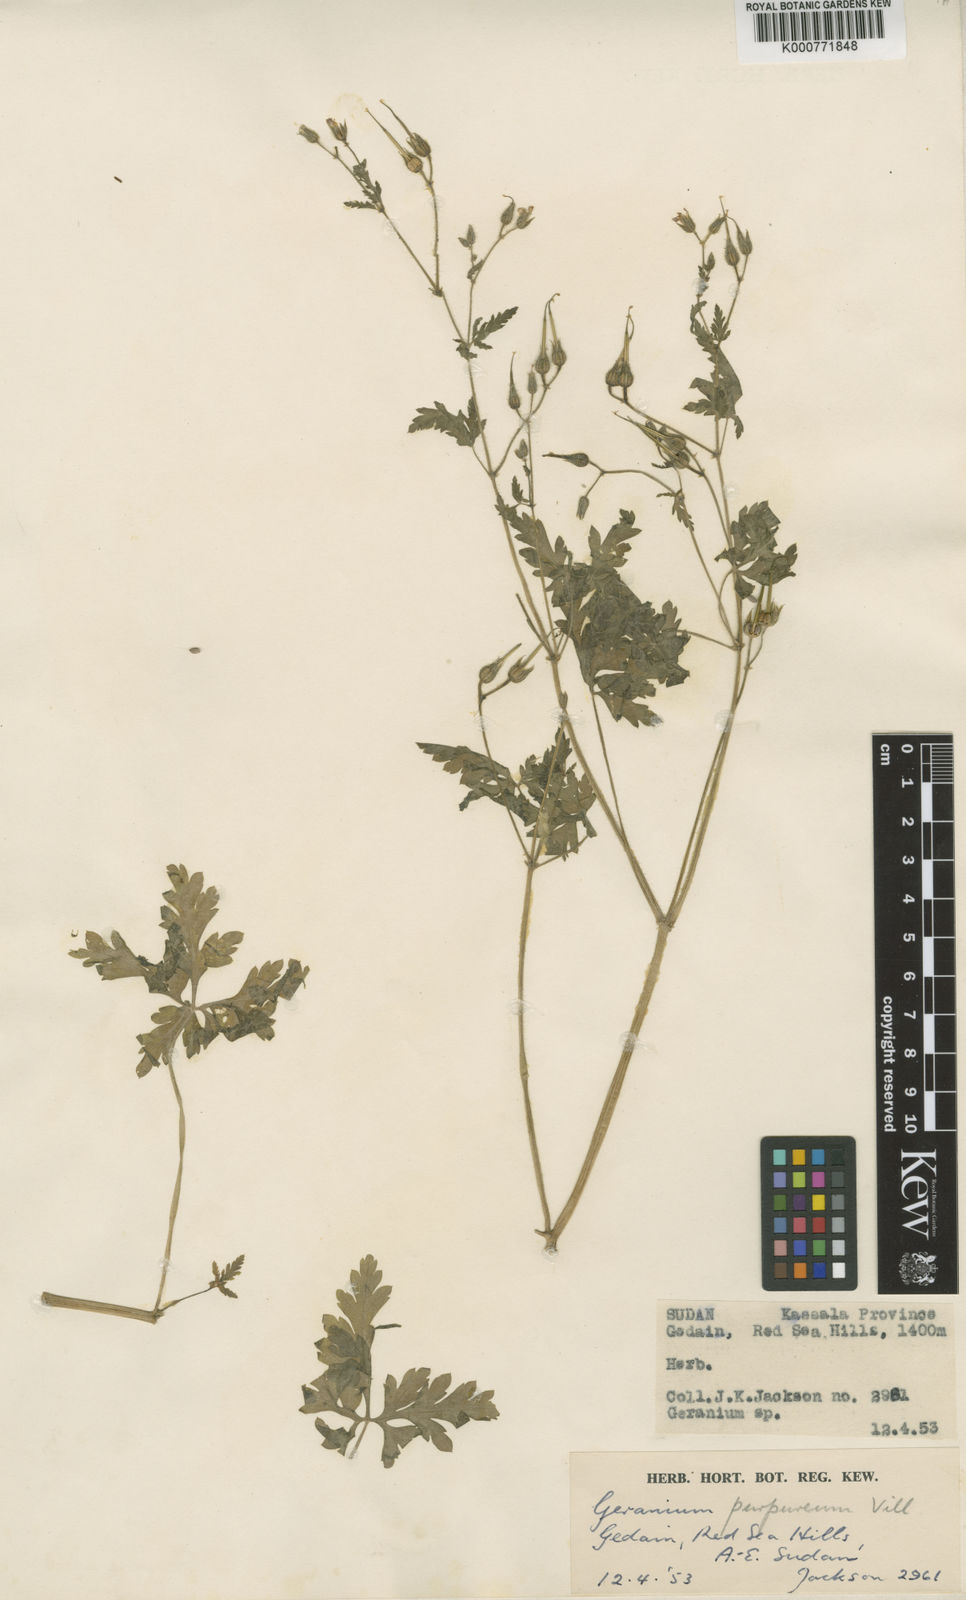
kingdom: Plantae
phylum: Tracheophyta
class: Magnoliopsida
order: Geraniales
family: Geraniaceae
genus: Geranium
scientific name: Geranium purpureum
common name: Little-robin
